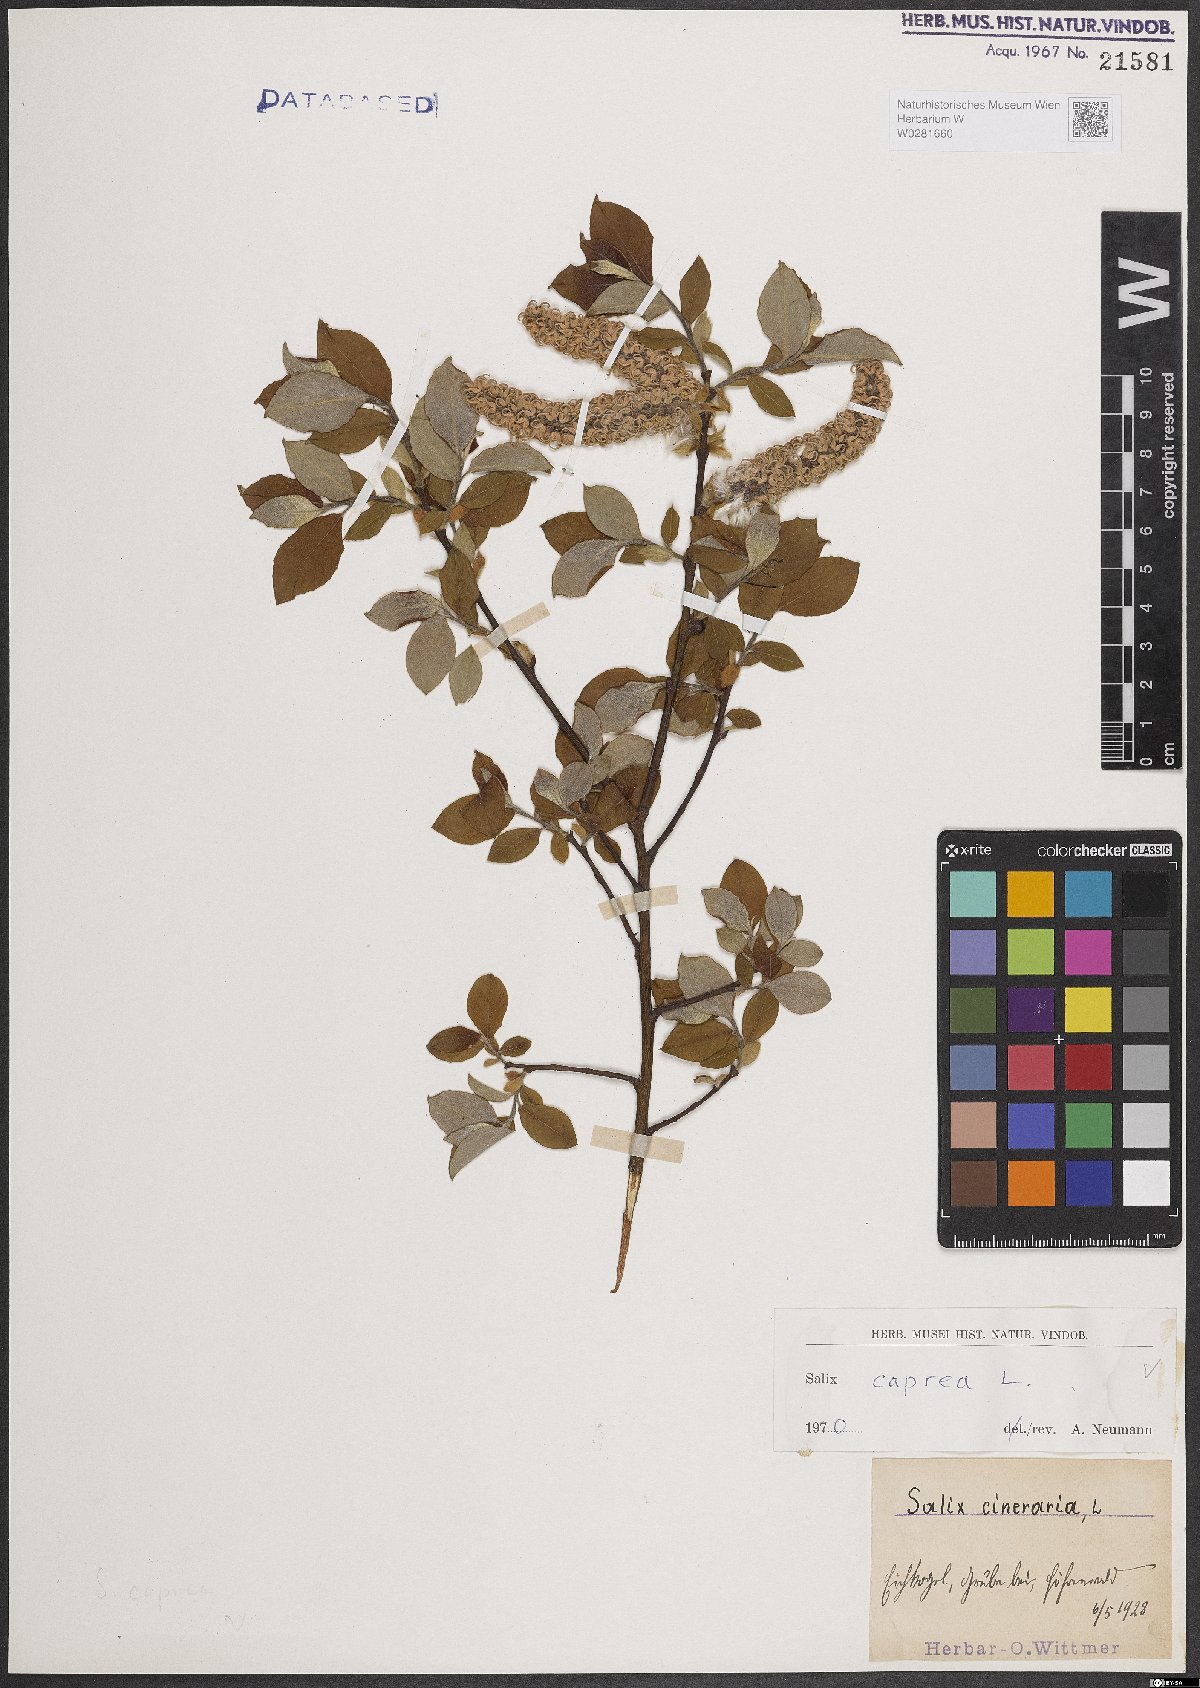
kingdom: Plantae
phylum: Tracheophyta
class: Magnoliopsida
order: Malpighiales
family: Salicaceae
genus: Salix
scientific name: Salix caprea
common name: Goat willow
